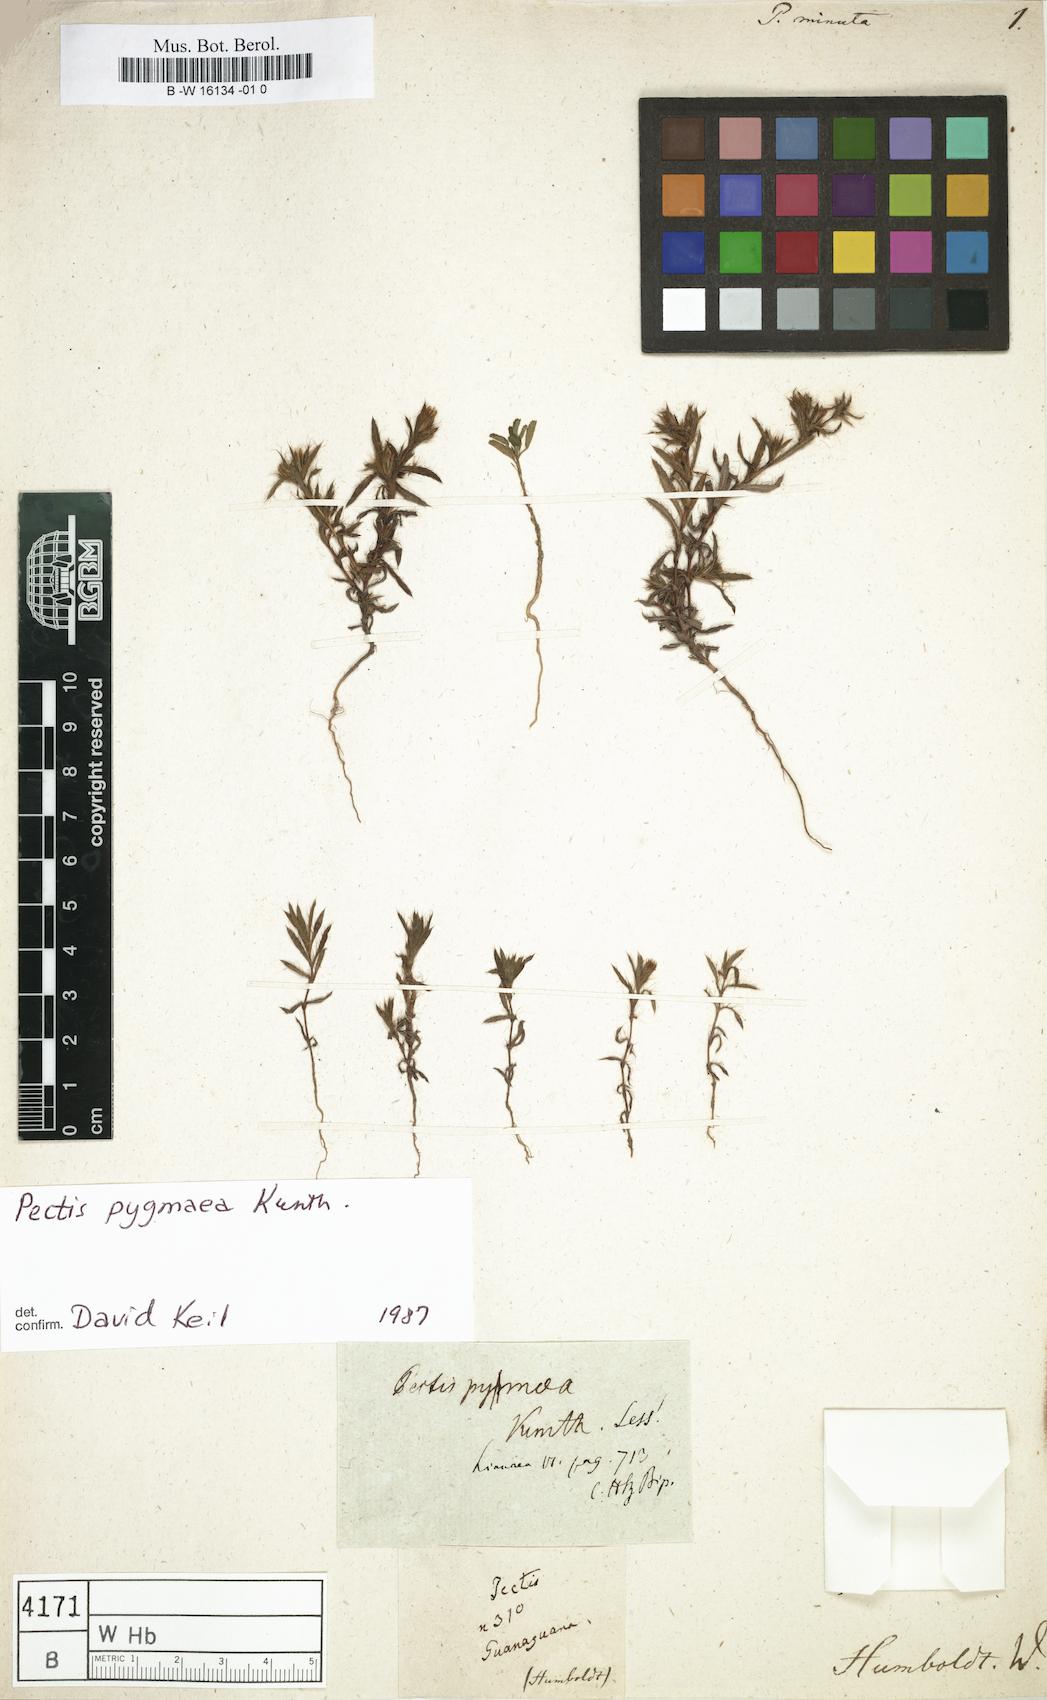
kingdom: Plantae
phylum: Tracheophyta
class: Magnoliopsida
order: Asterales
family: Asteraceae
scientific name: Asteraceae
